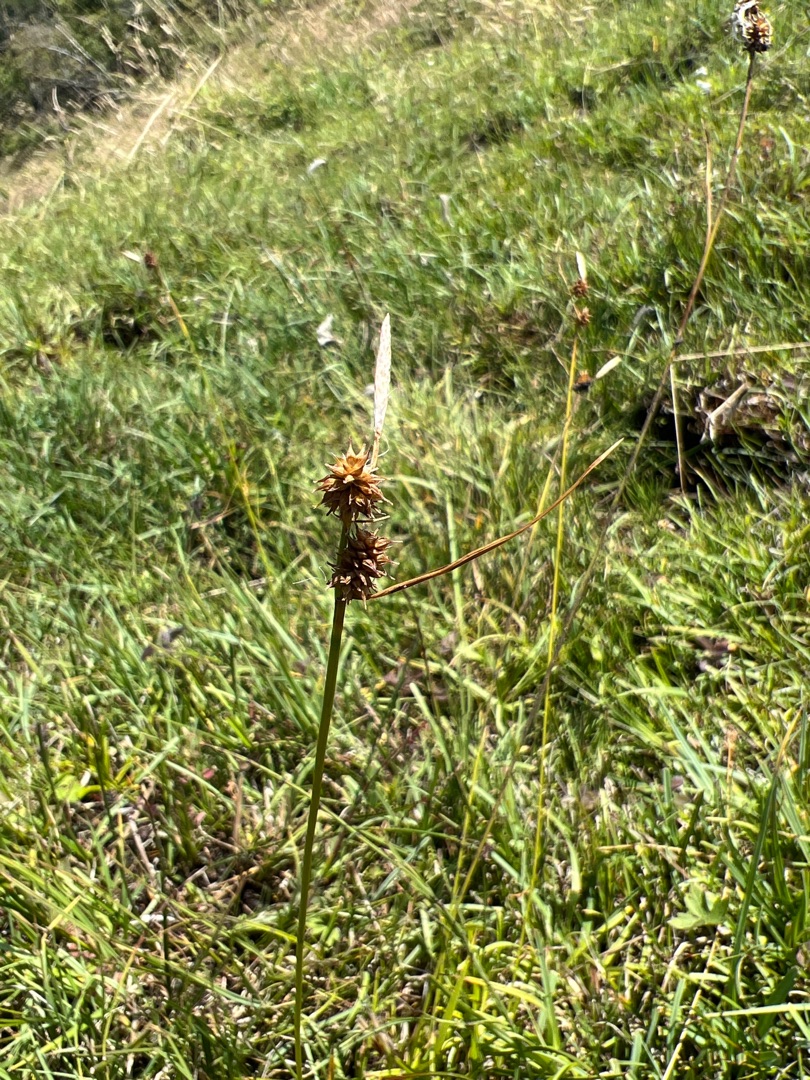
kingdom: Plantae
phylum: Tracheophyta
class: Liliopsida
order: Poales
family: Cyperaceae
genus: Carex
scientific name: Carex lepidocarpa
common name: Krognæb-star
